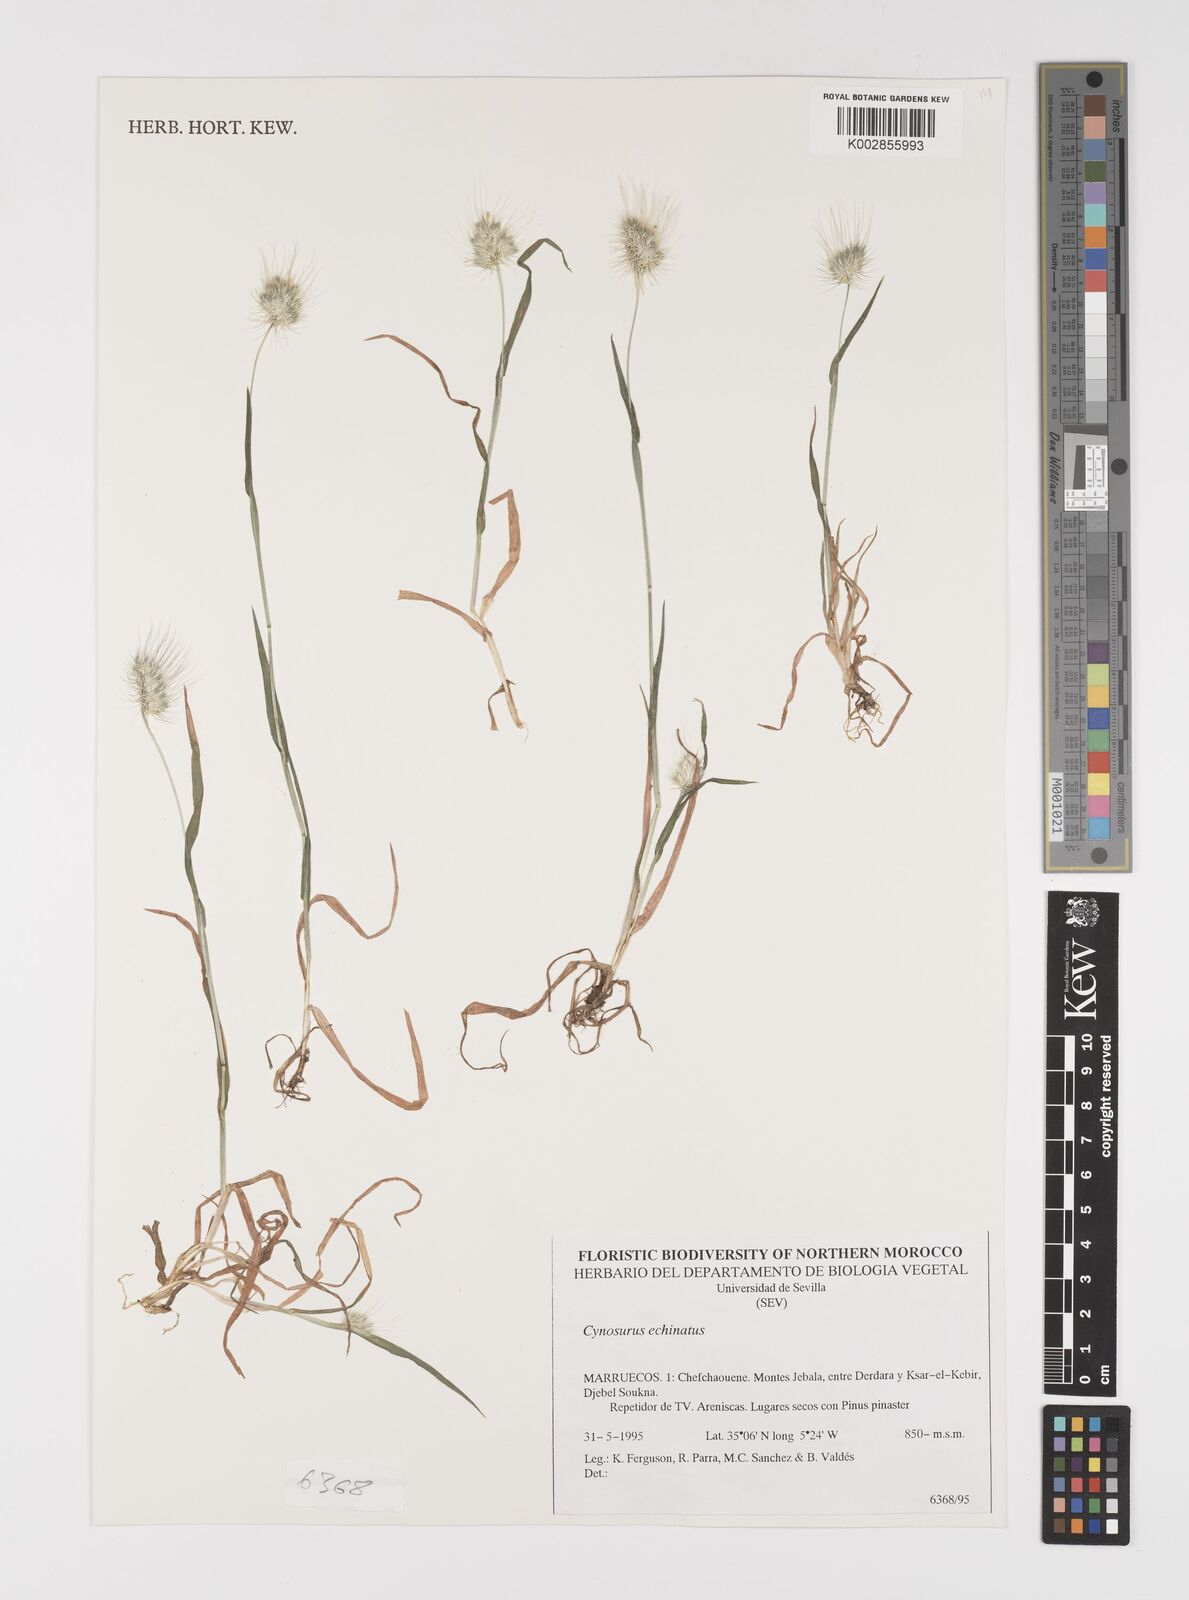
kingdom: Plantae
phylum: Tracheophyta
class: Liliopsida
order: Poales
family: Poaceae
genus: Cynosurus
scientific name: Cynosurus echinatus
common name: Rough dog's-tail
